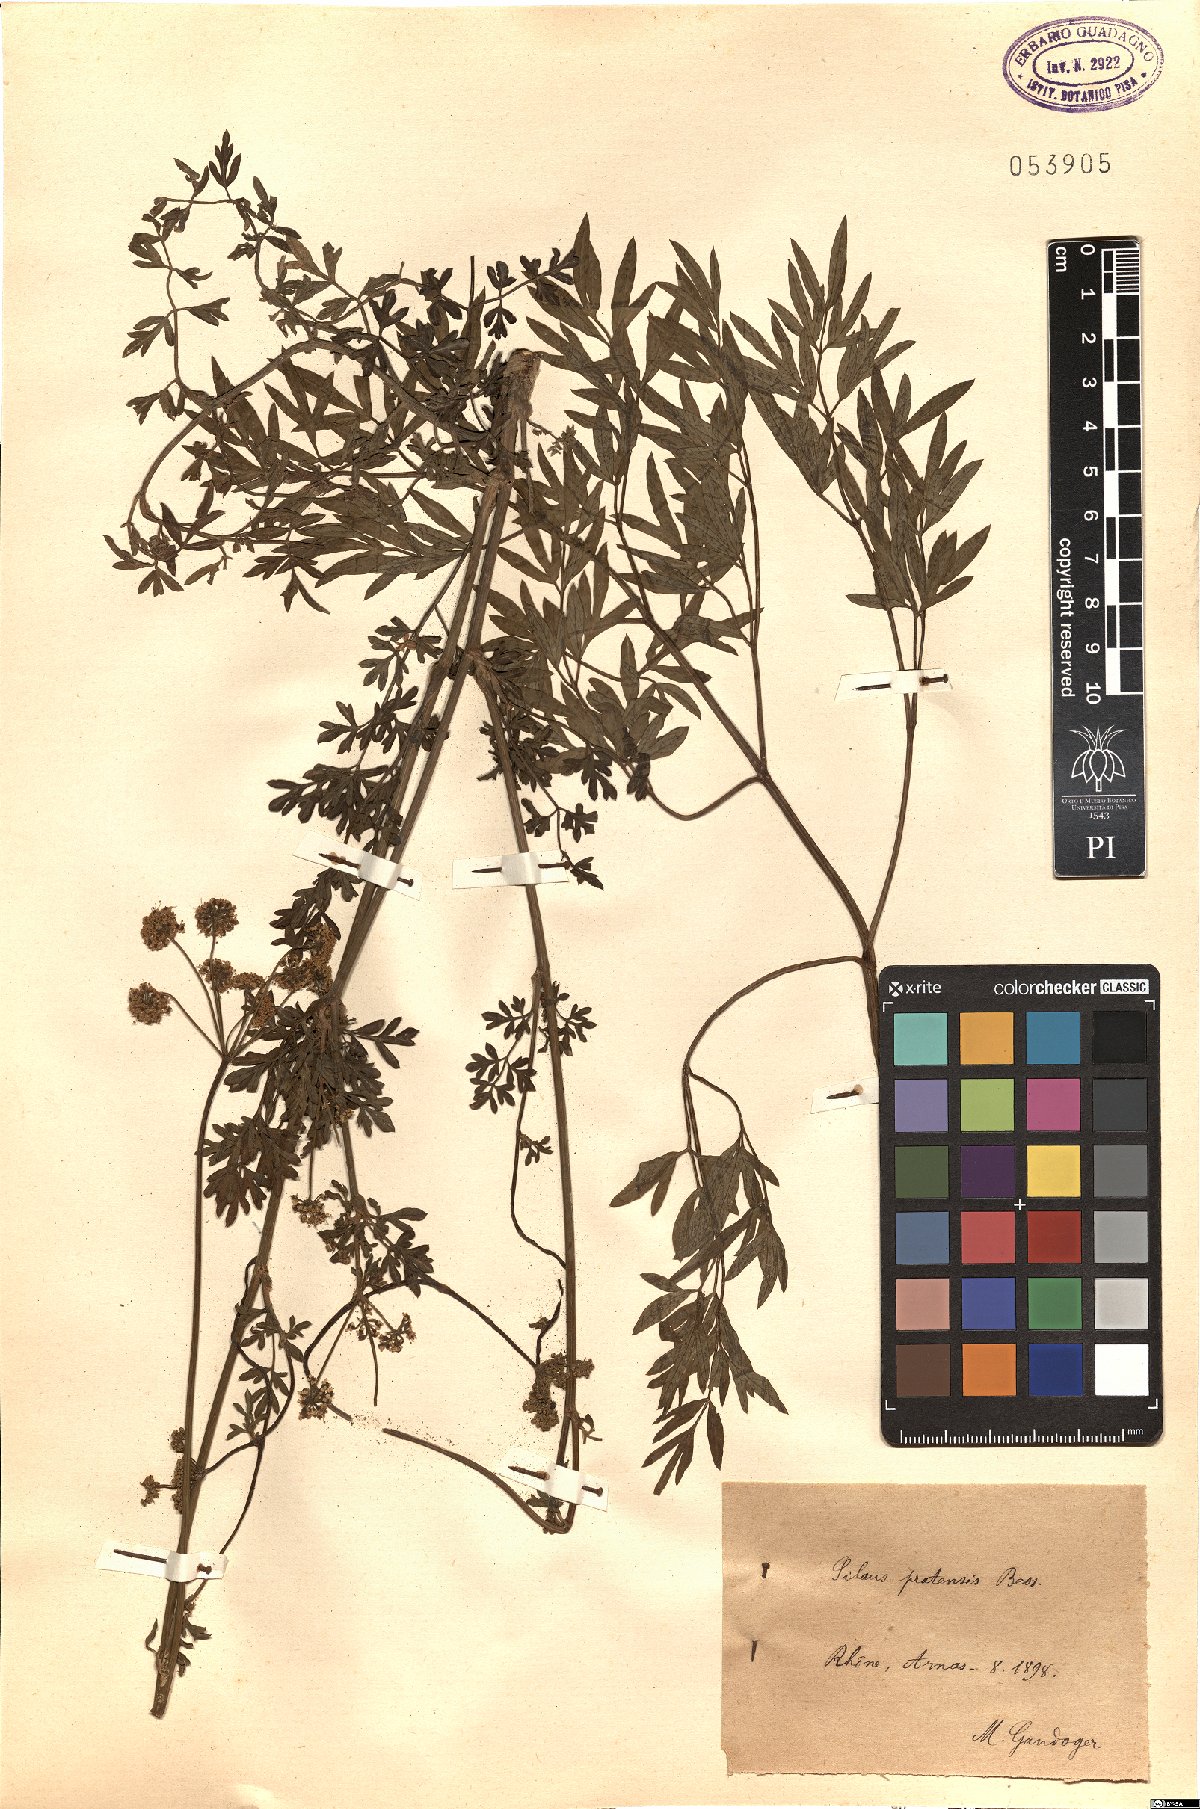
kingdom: Plantae
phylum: Tracheophyta
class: Magnoliopsida
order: Apiales
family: Apiaceae
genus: Silaum
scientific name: Silaum silaus
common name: Pepper-saxifrage
